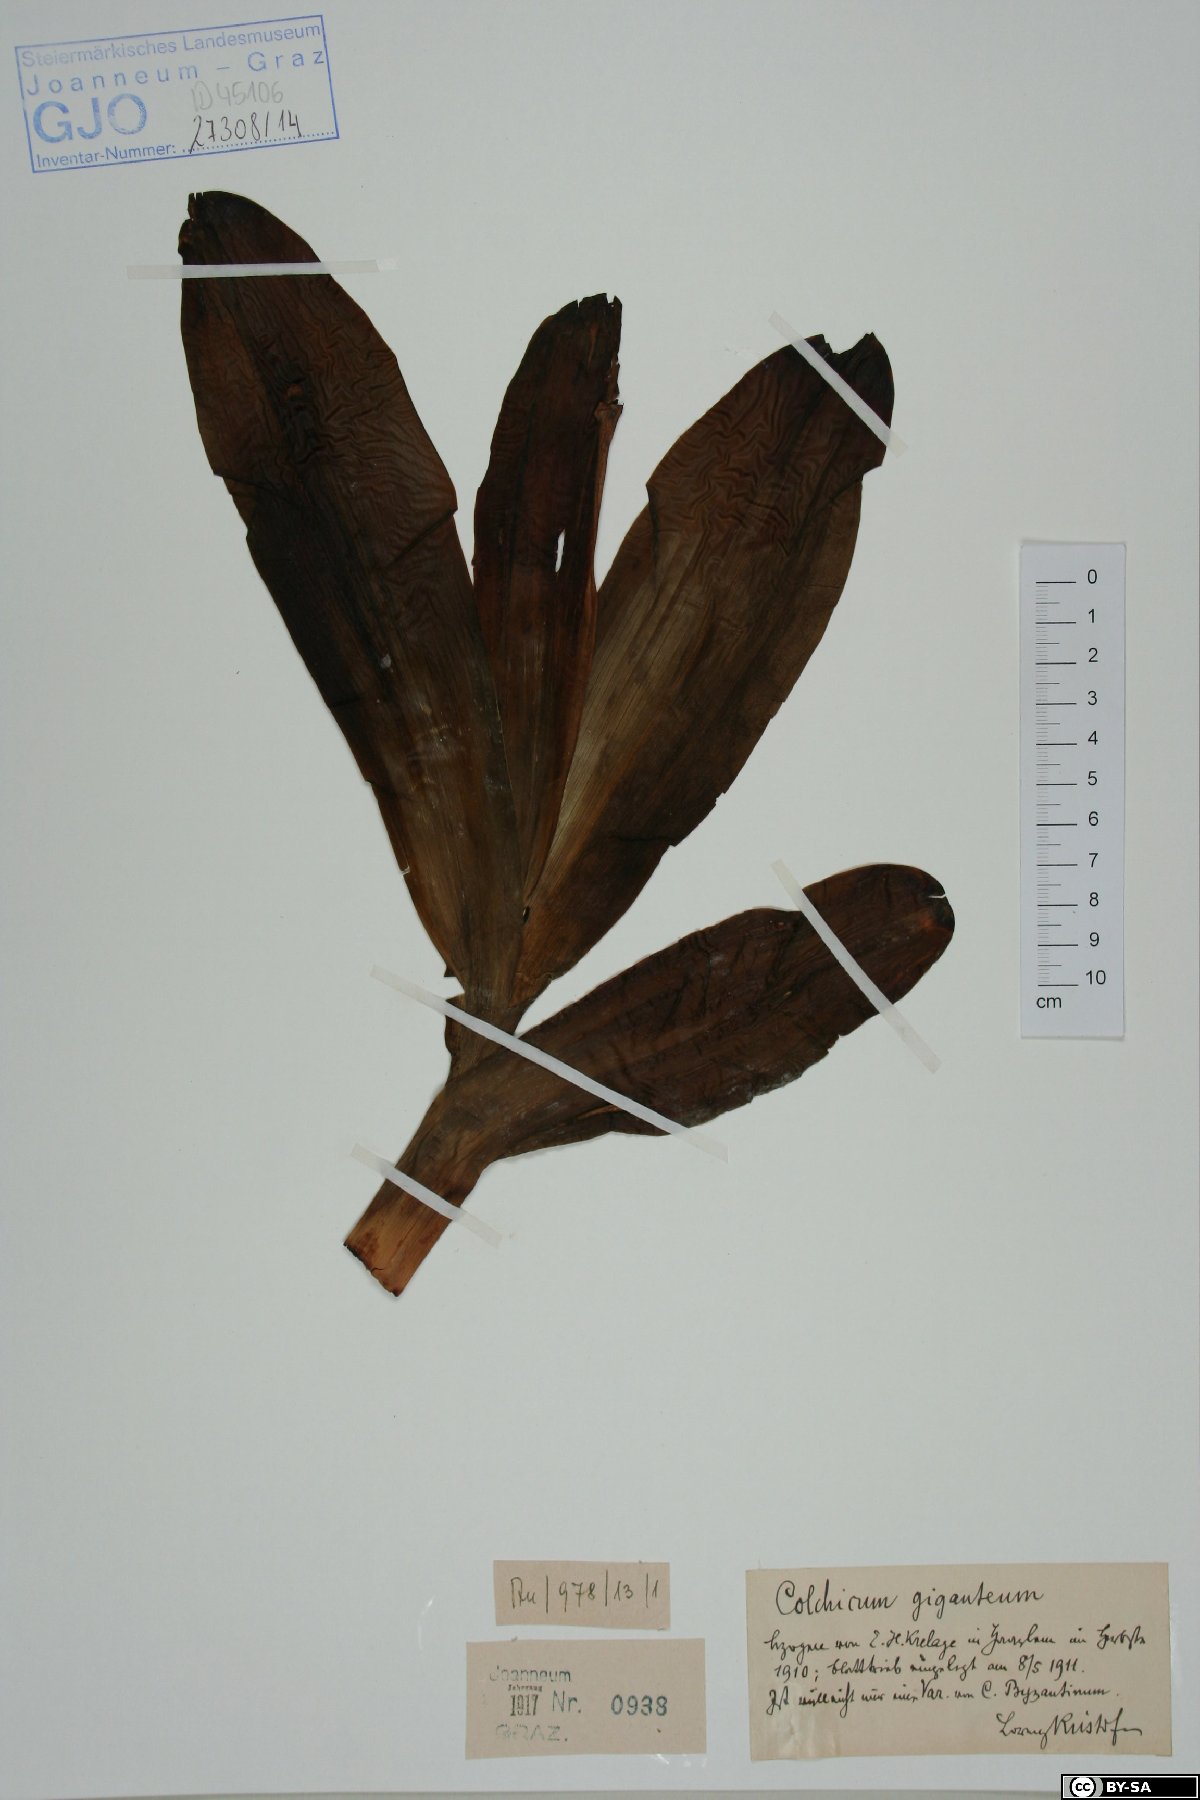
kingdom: Plantae
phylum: Tracheophyta
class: Liliopsida
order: Liliales
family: Colchicaceae
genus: Colchicum
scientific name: Colchicum speciosum
